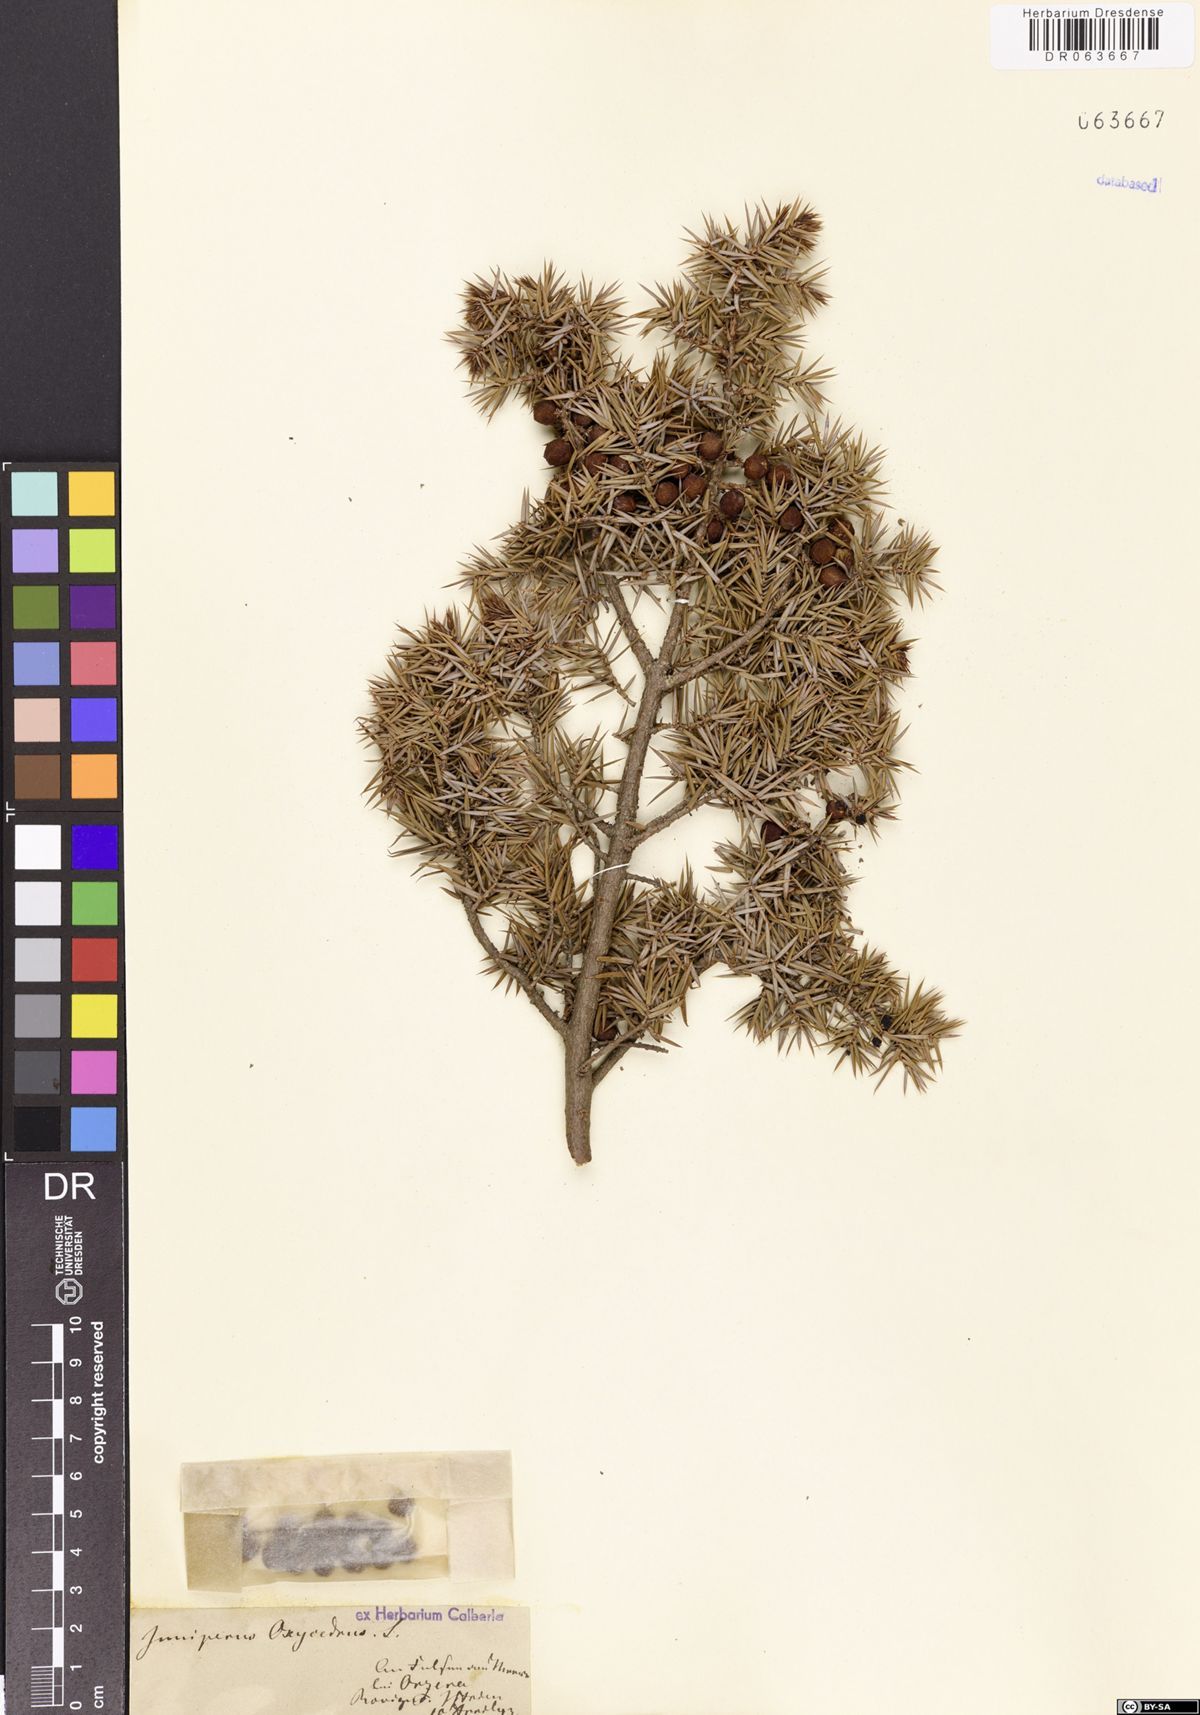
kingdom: Plantae
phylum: Tracheophyta
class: Pinopsida
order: Pinales
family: Cupressaceae
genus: Juniperus
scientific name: Juniperus oxycedrus
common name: Prickly juniper
